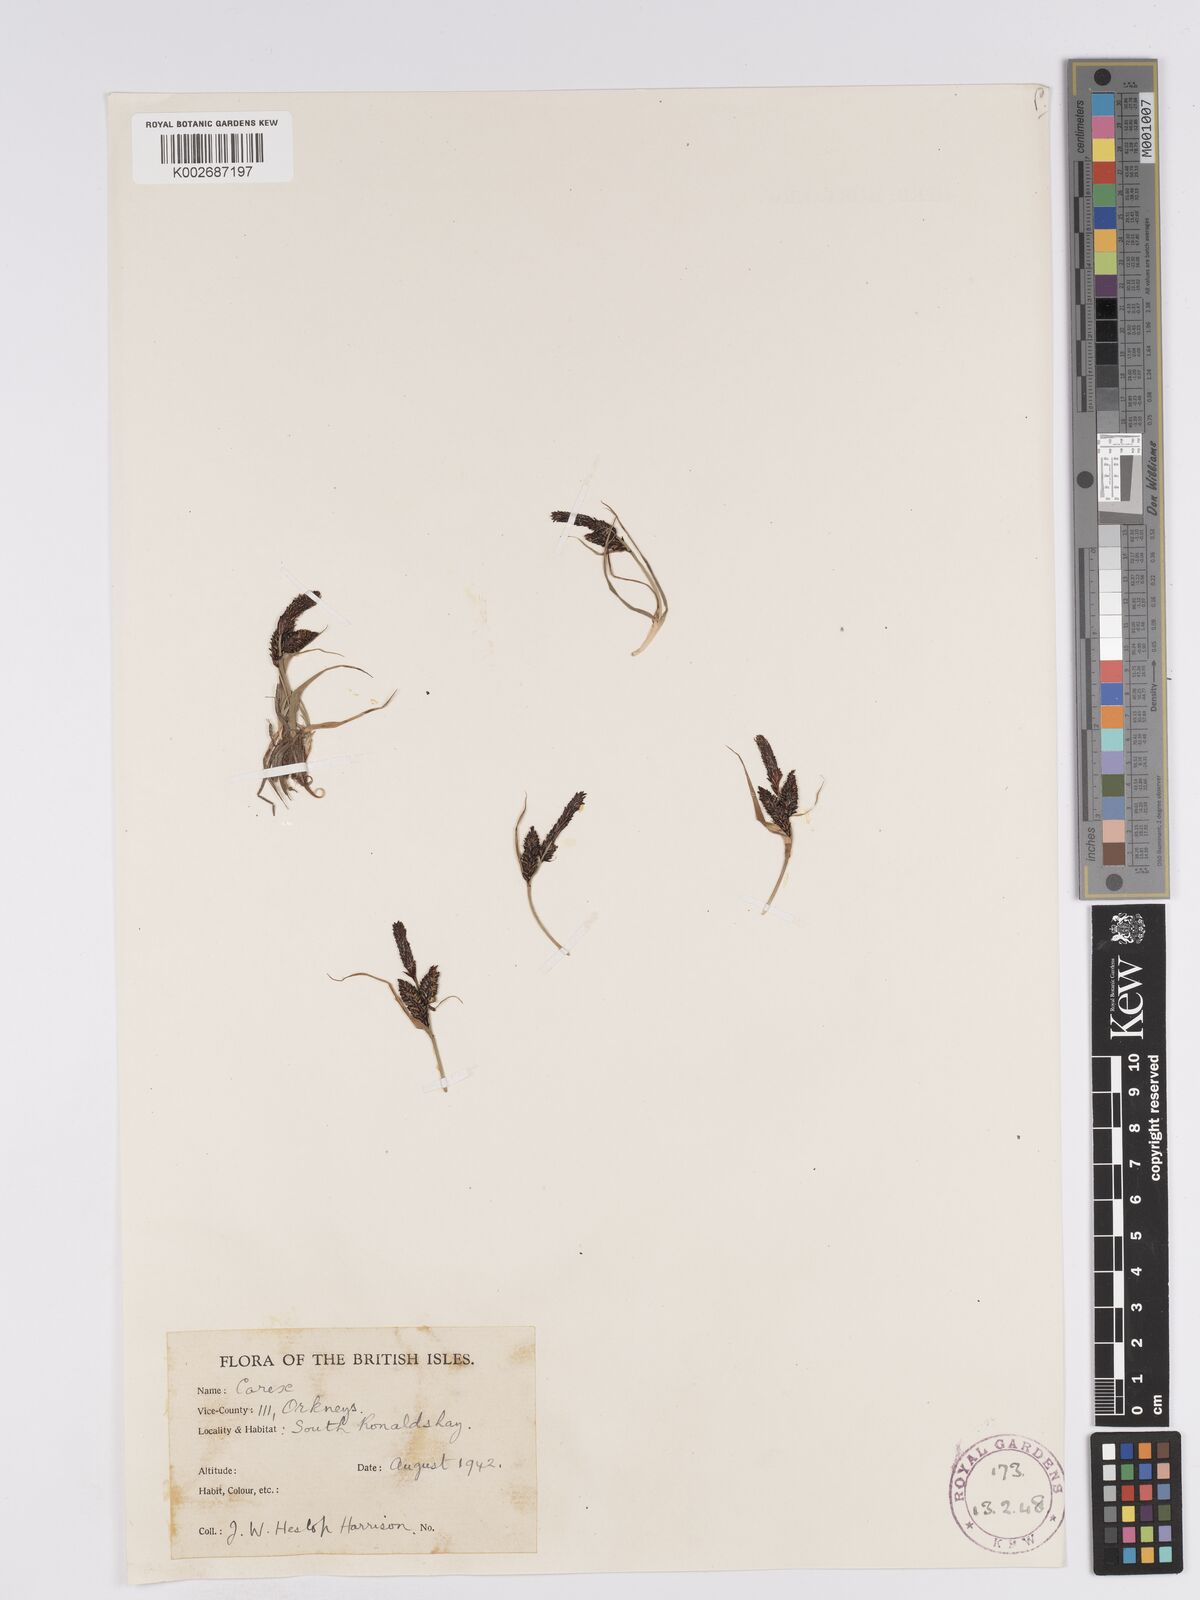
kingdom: Plantae
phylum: Tracheophyta
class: Liliopsida
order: Poales
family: Cyperaceae
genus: Carex
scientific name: Carex nigra
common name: Common sedge
